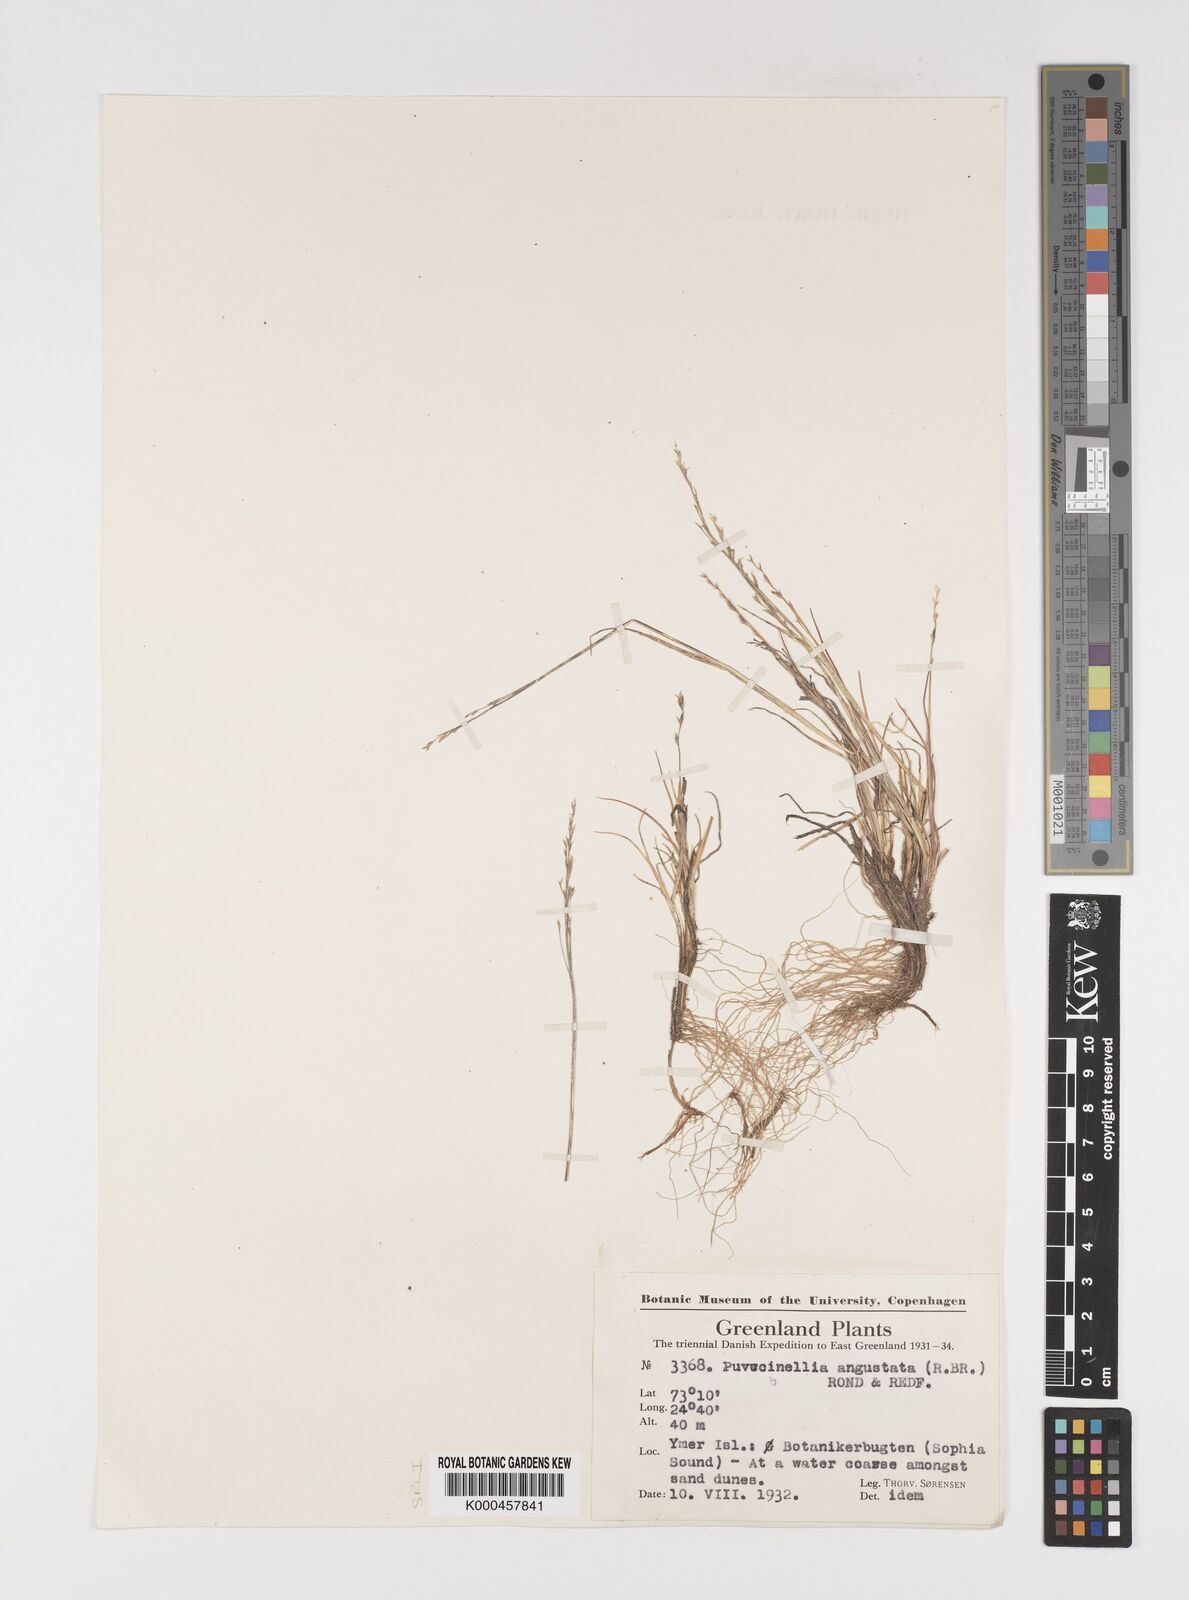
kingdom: Plantae
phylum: Tracheophyta
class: Liliopsida
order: Poales
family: Poaceae
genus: Puccinellia
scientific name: Puccinellia angustata
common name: Narrow alkaligrass
